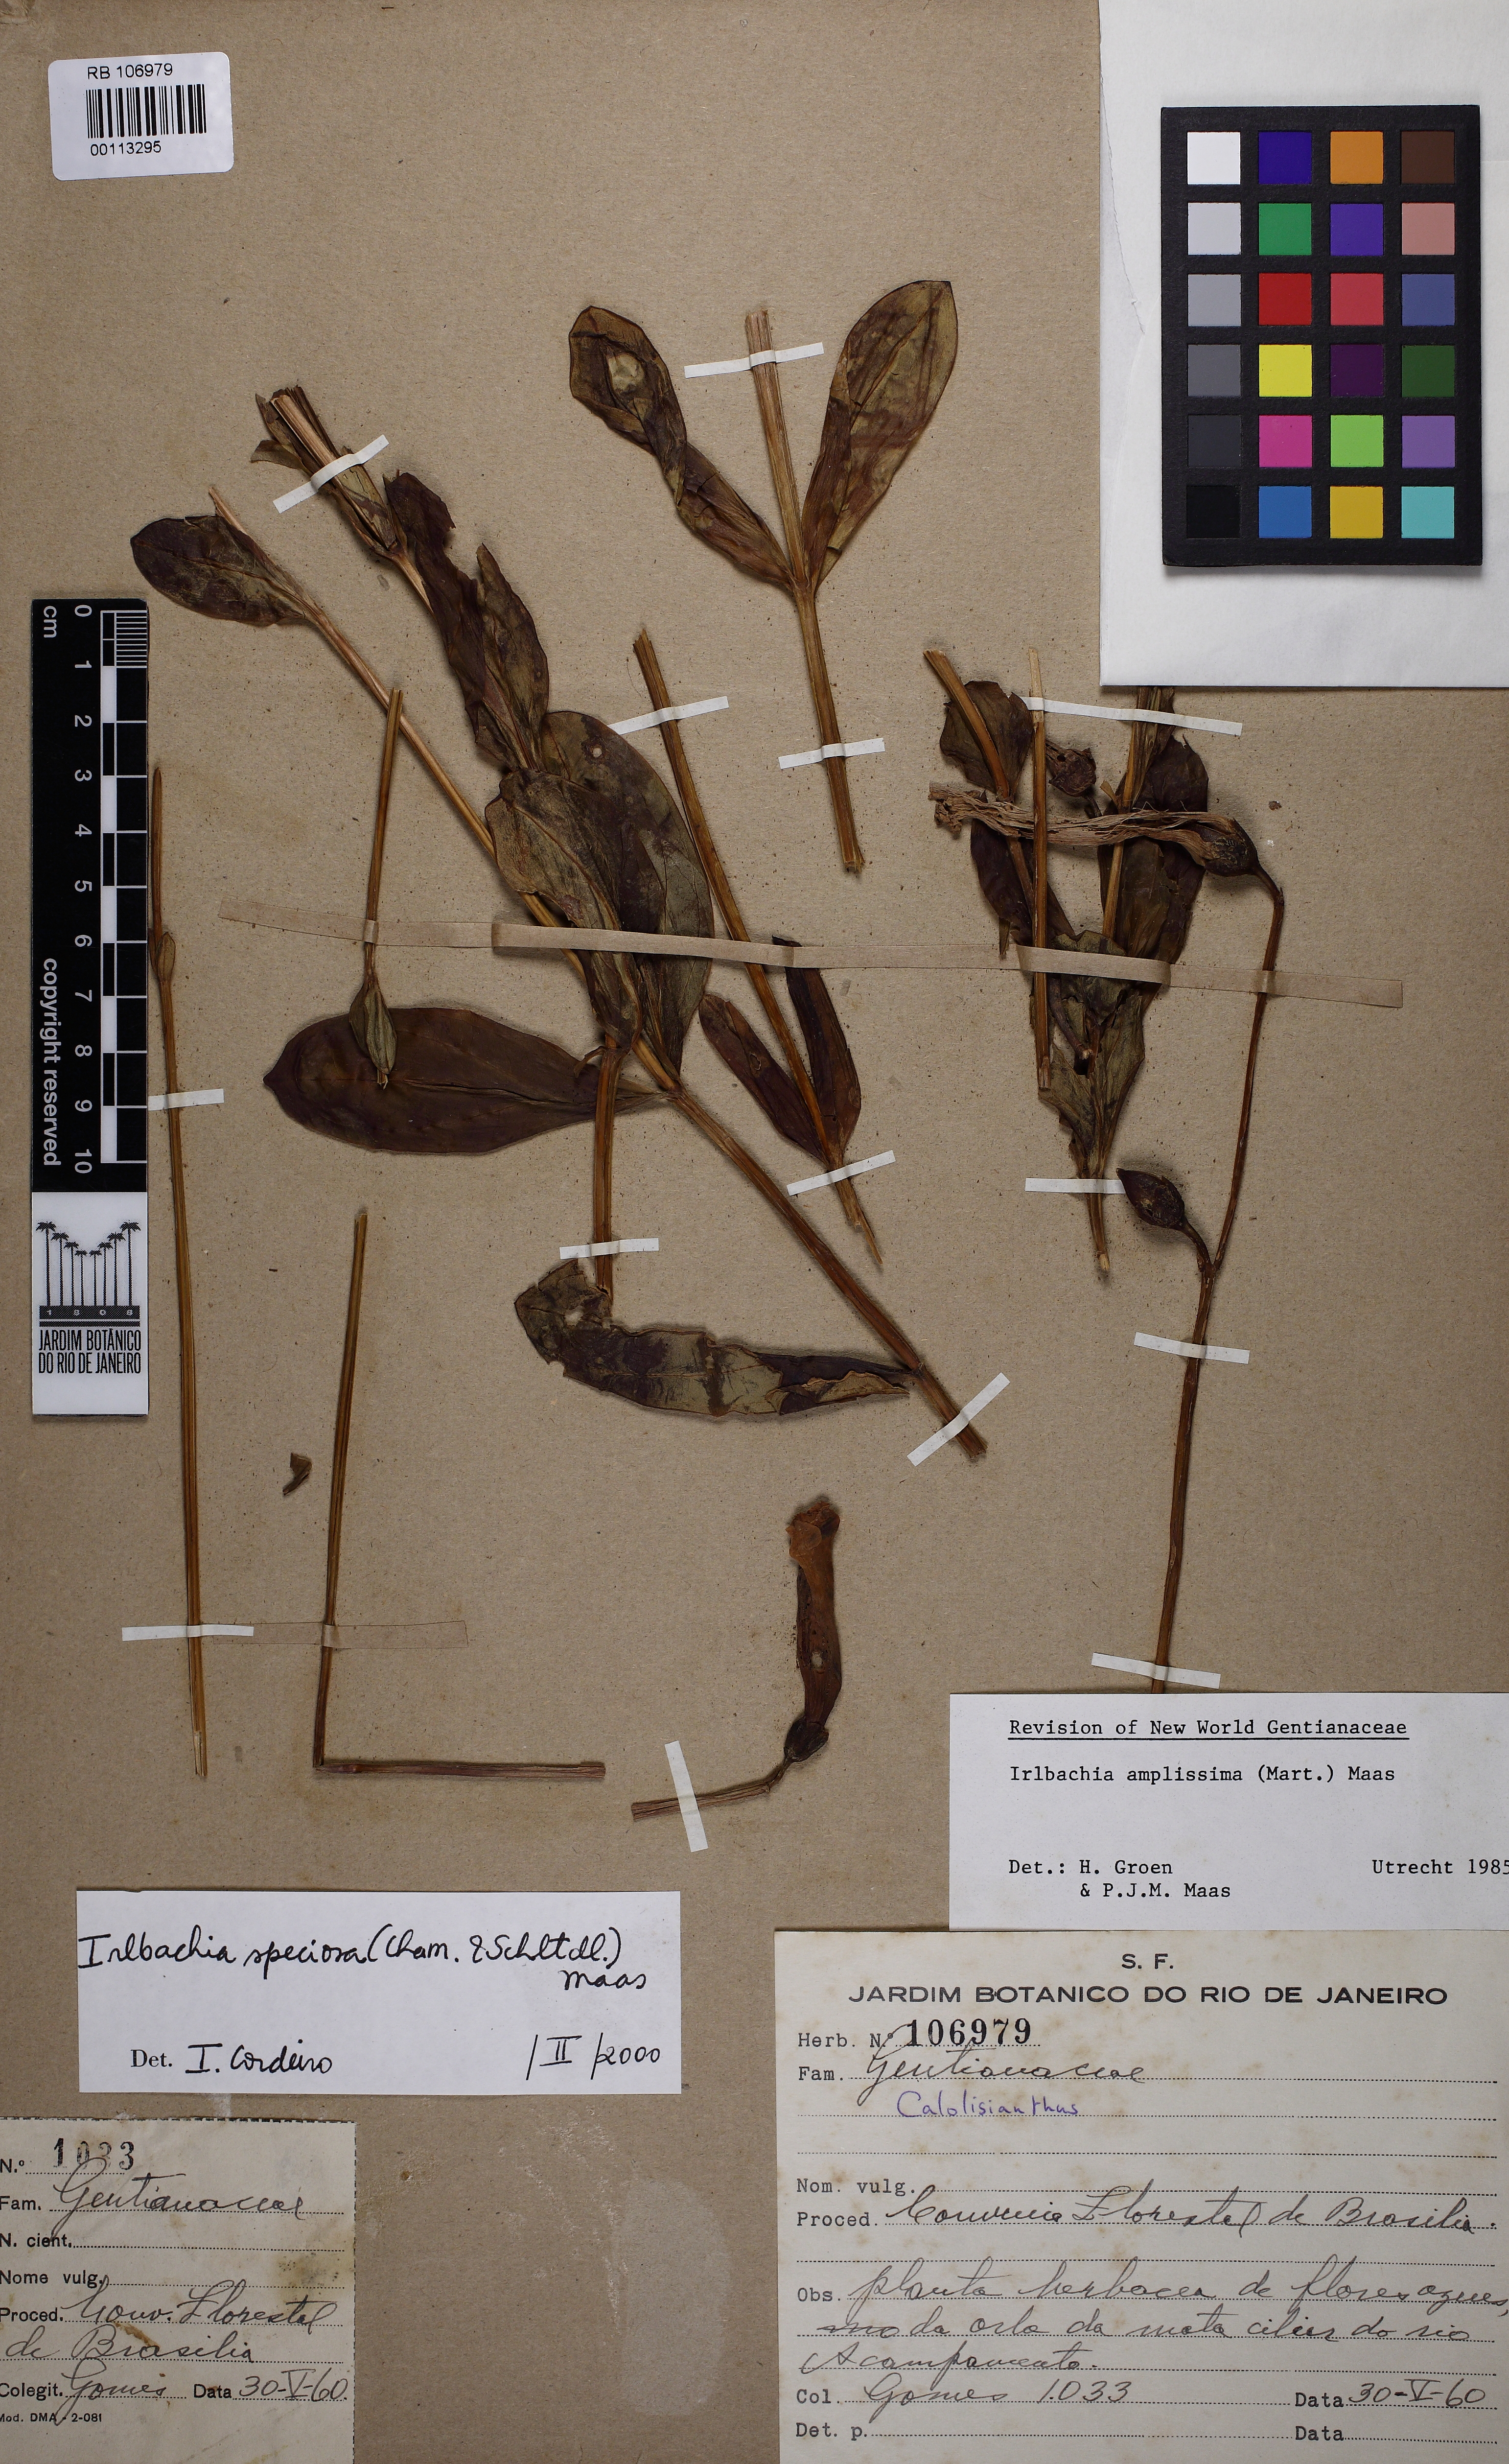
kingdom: Plantae
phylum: Tracheophyta
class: Magnoliopsida
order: Gentianales
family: Gentianaceae
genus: Calolisianthus
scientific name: Calolisianthus speciosus
